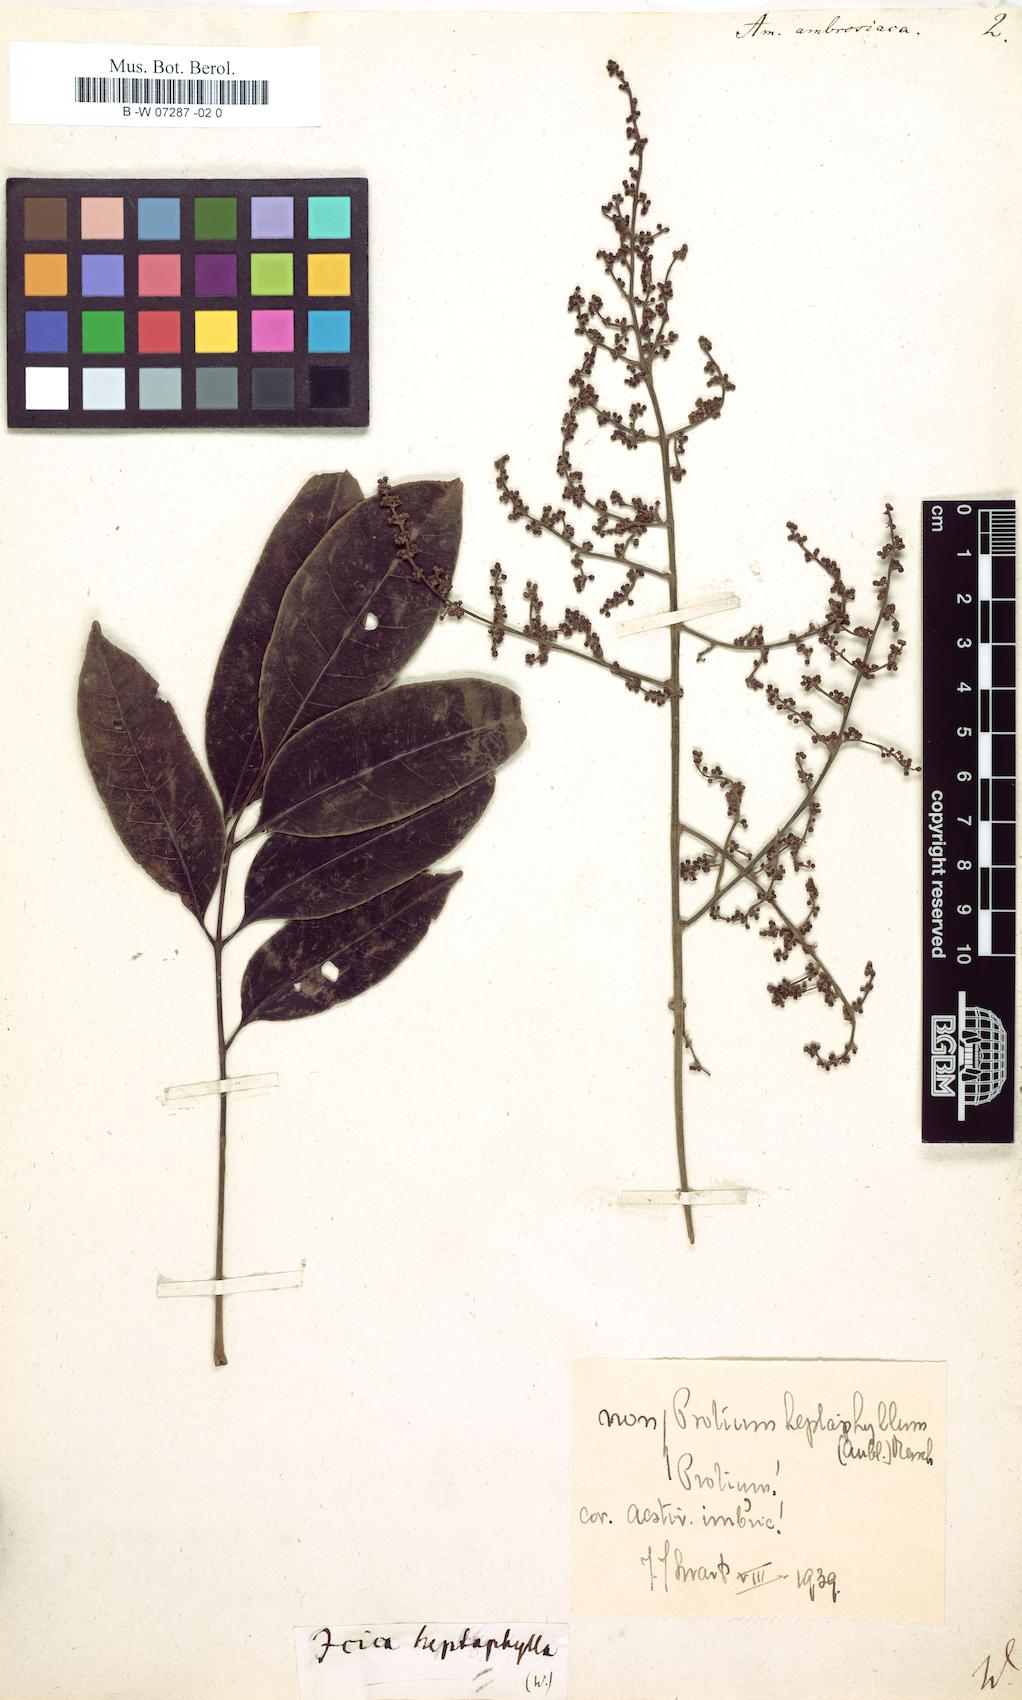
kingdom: Plantae
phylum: Tracheophyta
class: Magnoliopsida
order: Sapindales
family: Burseraceae
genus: Protium
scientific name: Protium guianense
